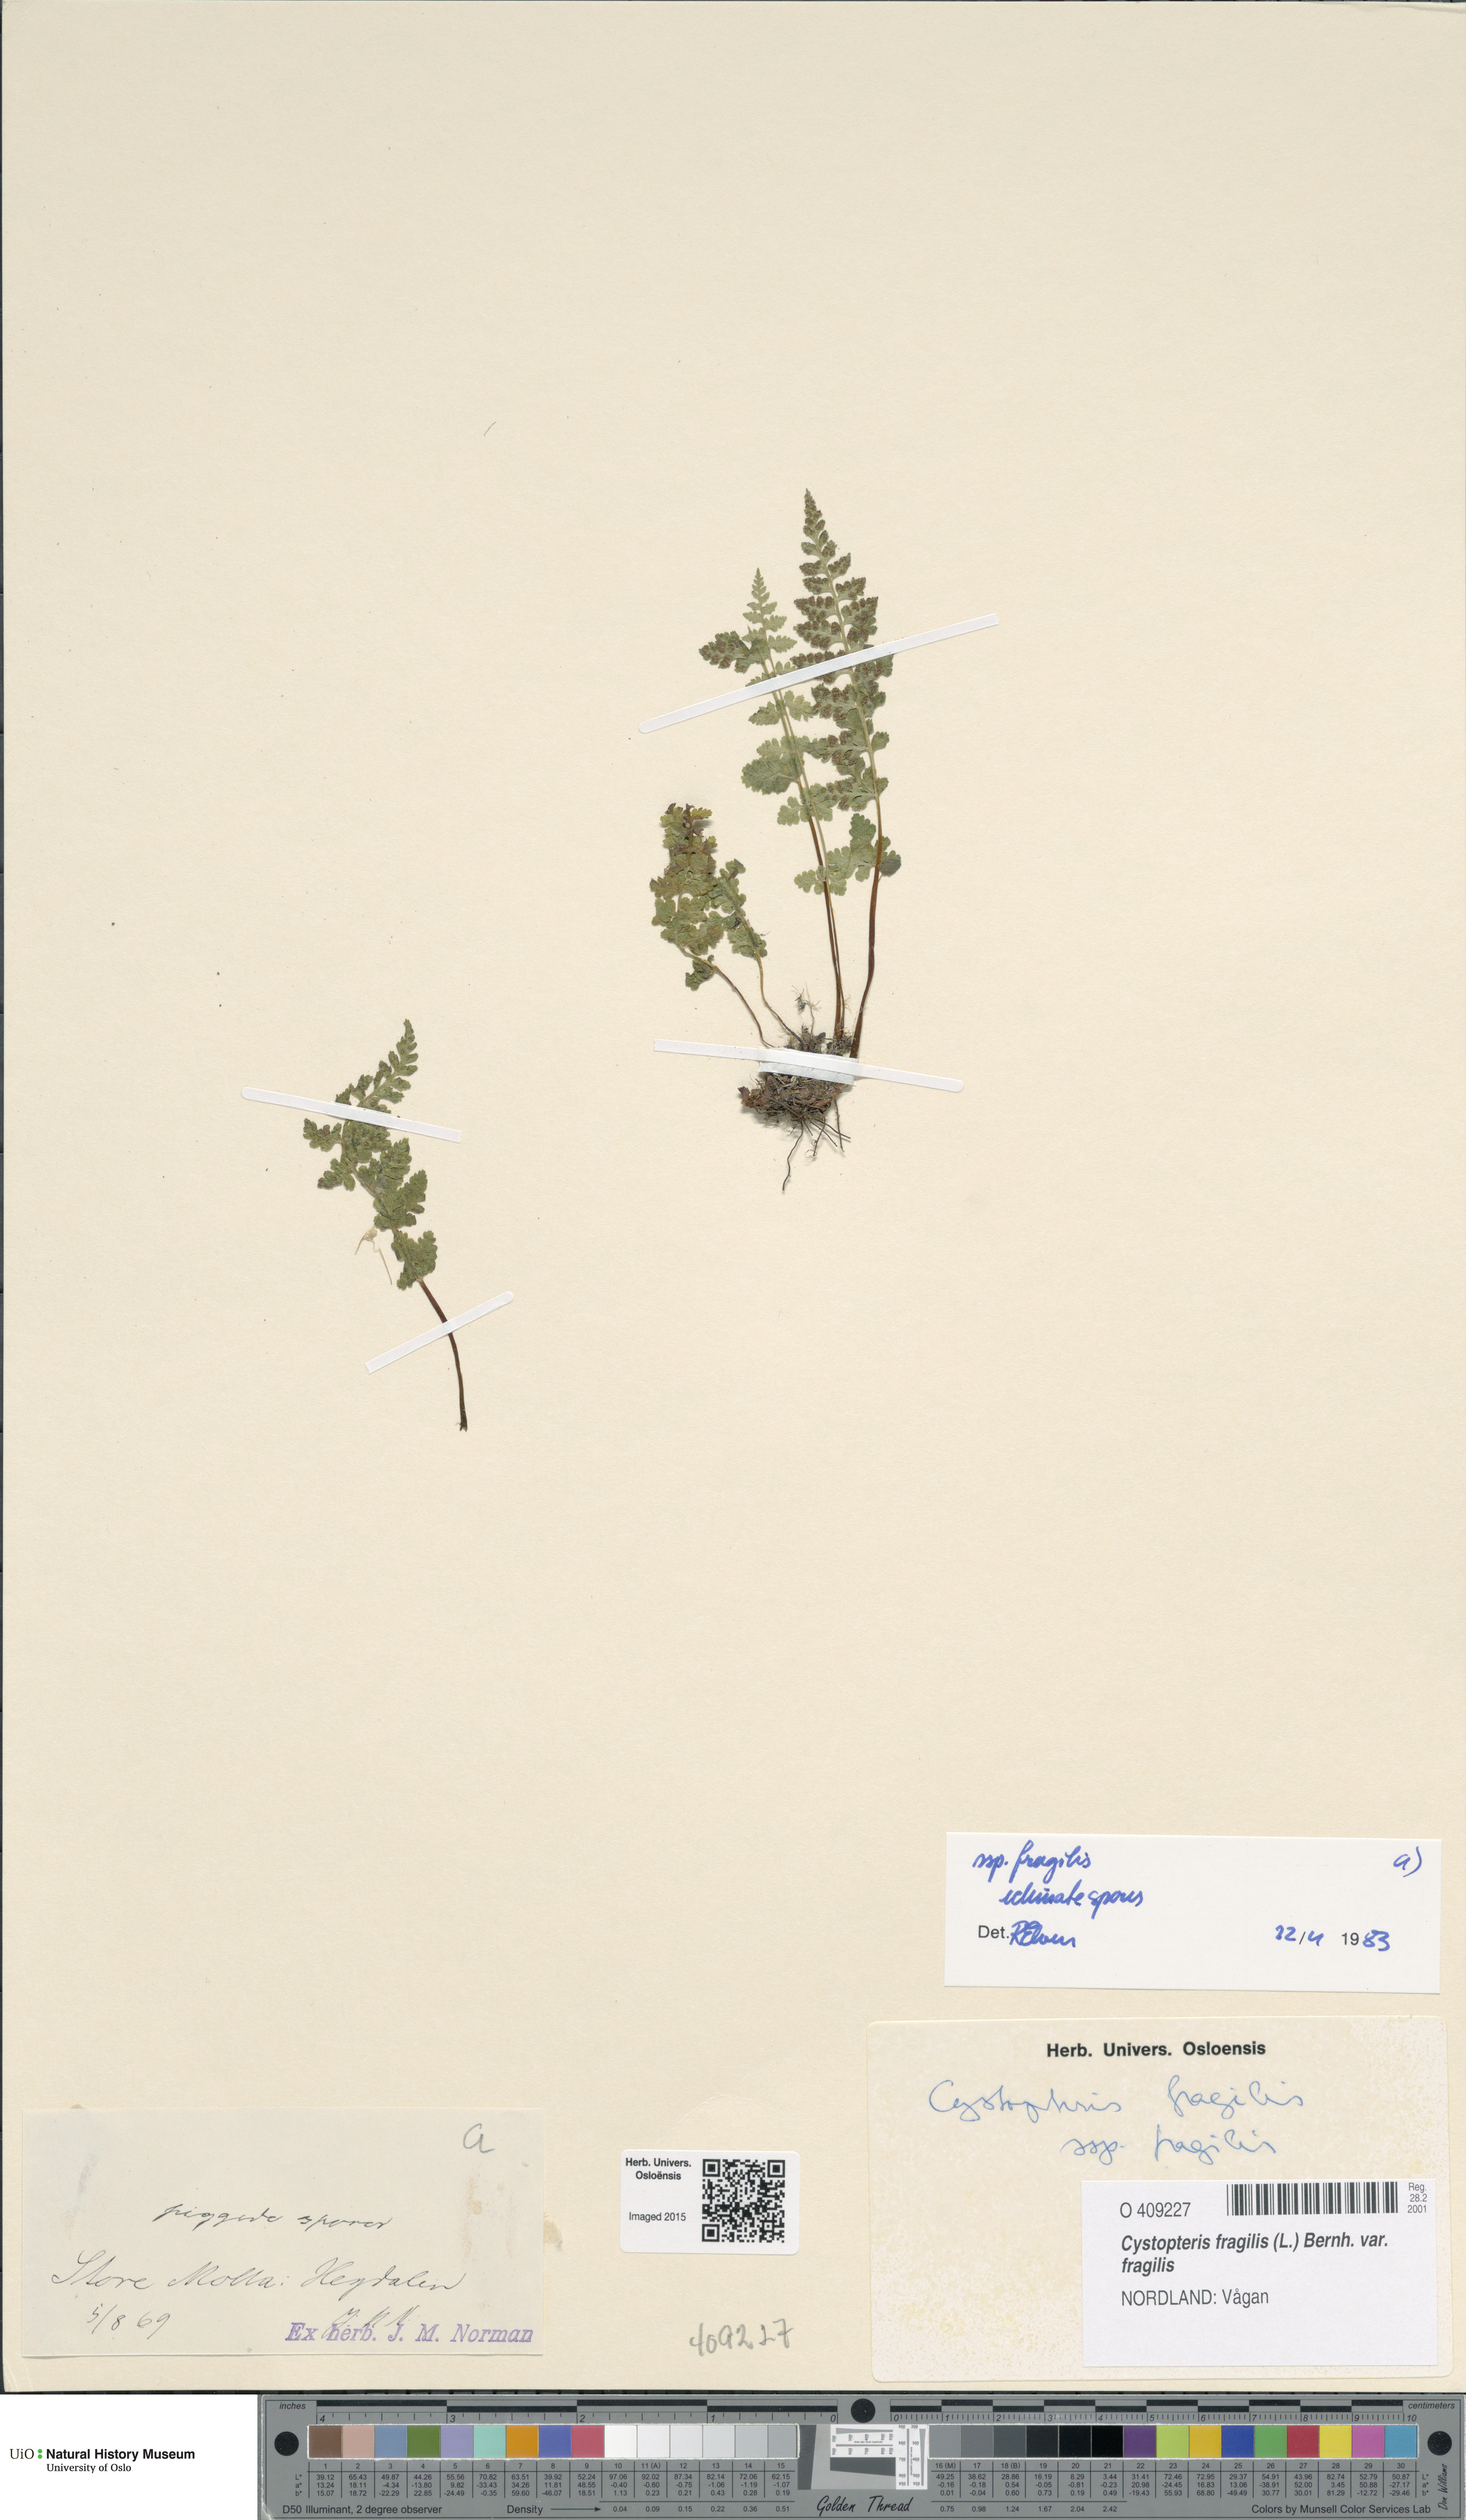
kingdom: Plantae
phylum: Tracheophyta
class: Polypodiopsida
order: Polypodiales
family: Cystopteridaceae
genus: Cystopteris
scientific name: Cystopteris fragilis
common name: Brittle bladder fern
